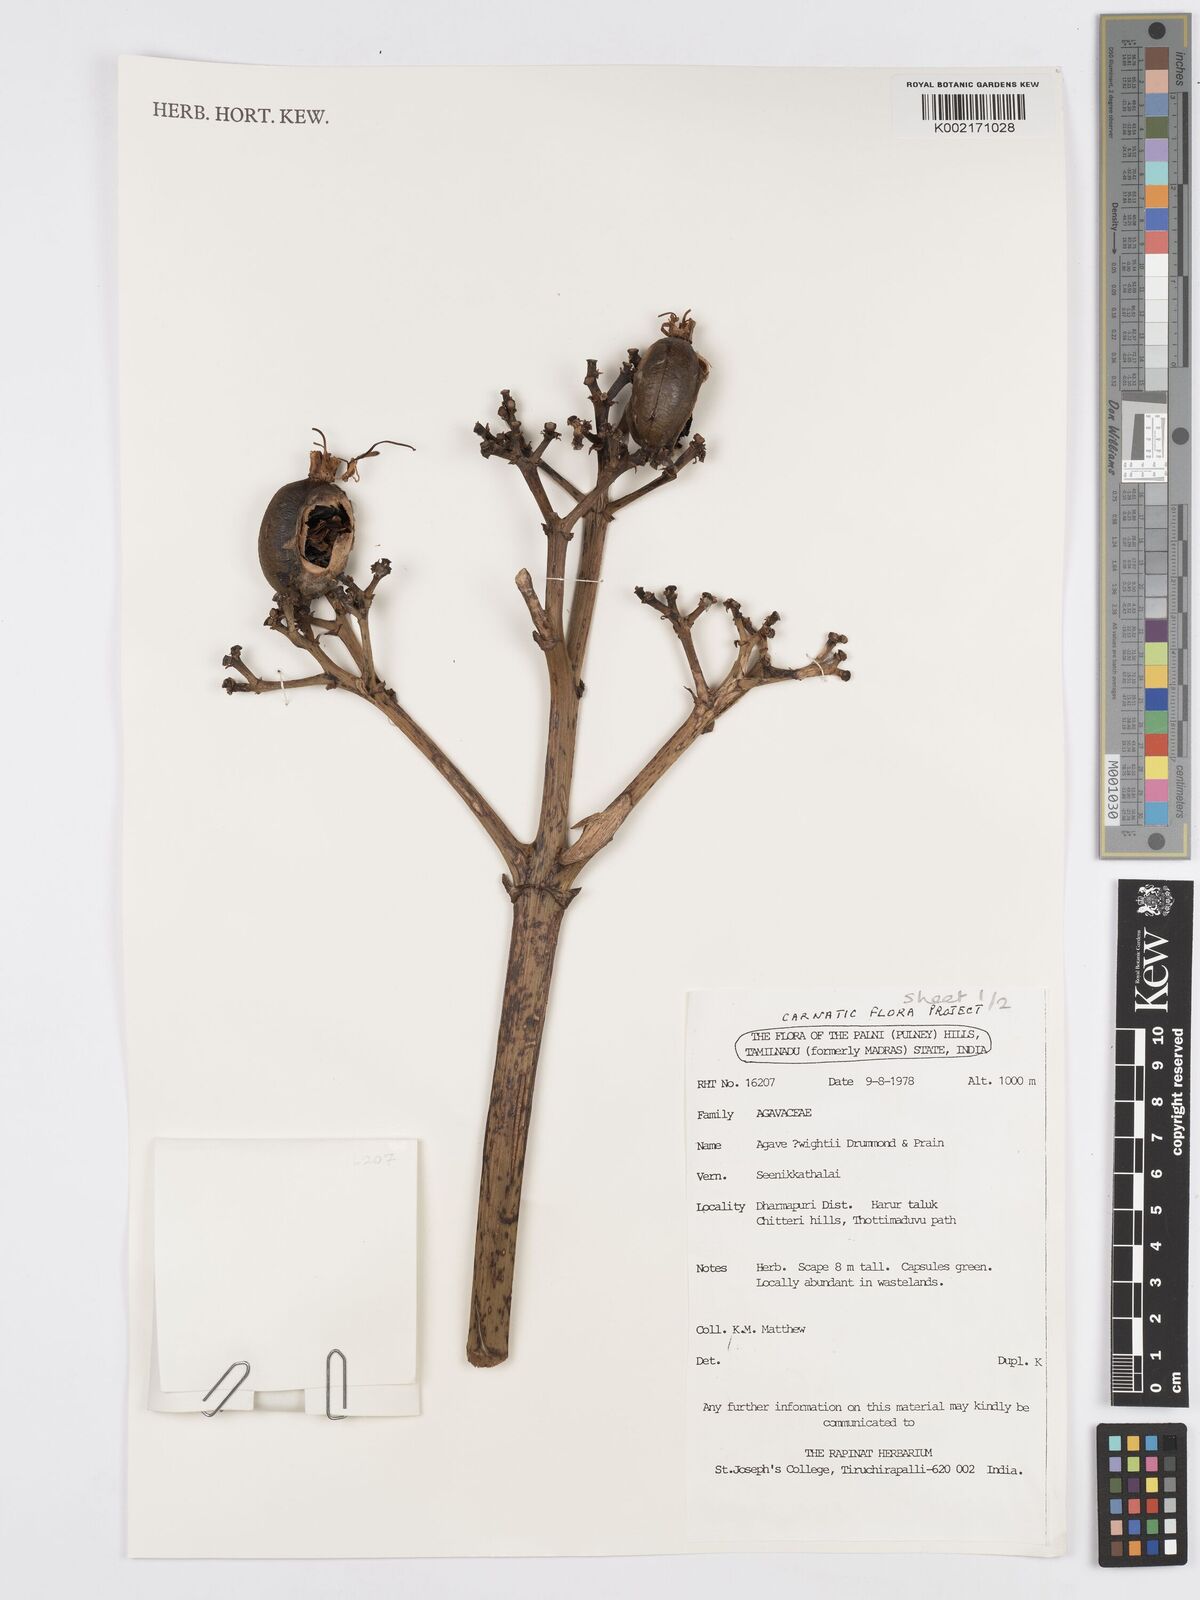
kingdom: Plantae
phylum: Tracheophyta
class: Liliopsida
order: Asparagales
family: Asparagaceae
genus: Agave
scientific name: Agave angustifolia
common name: Mescal agave
